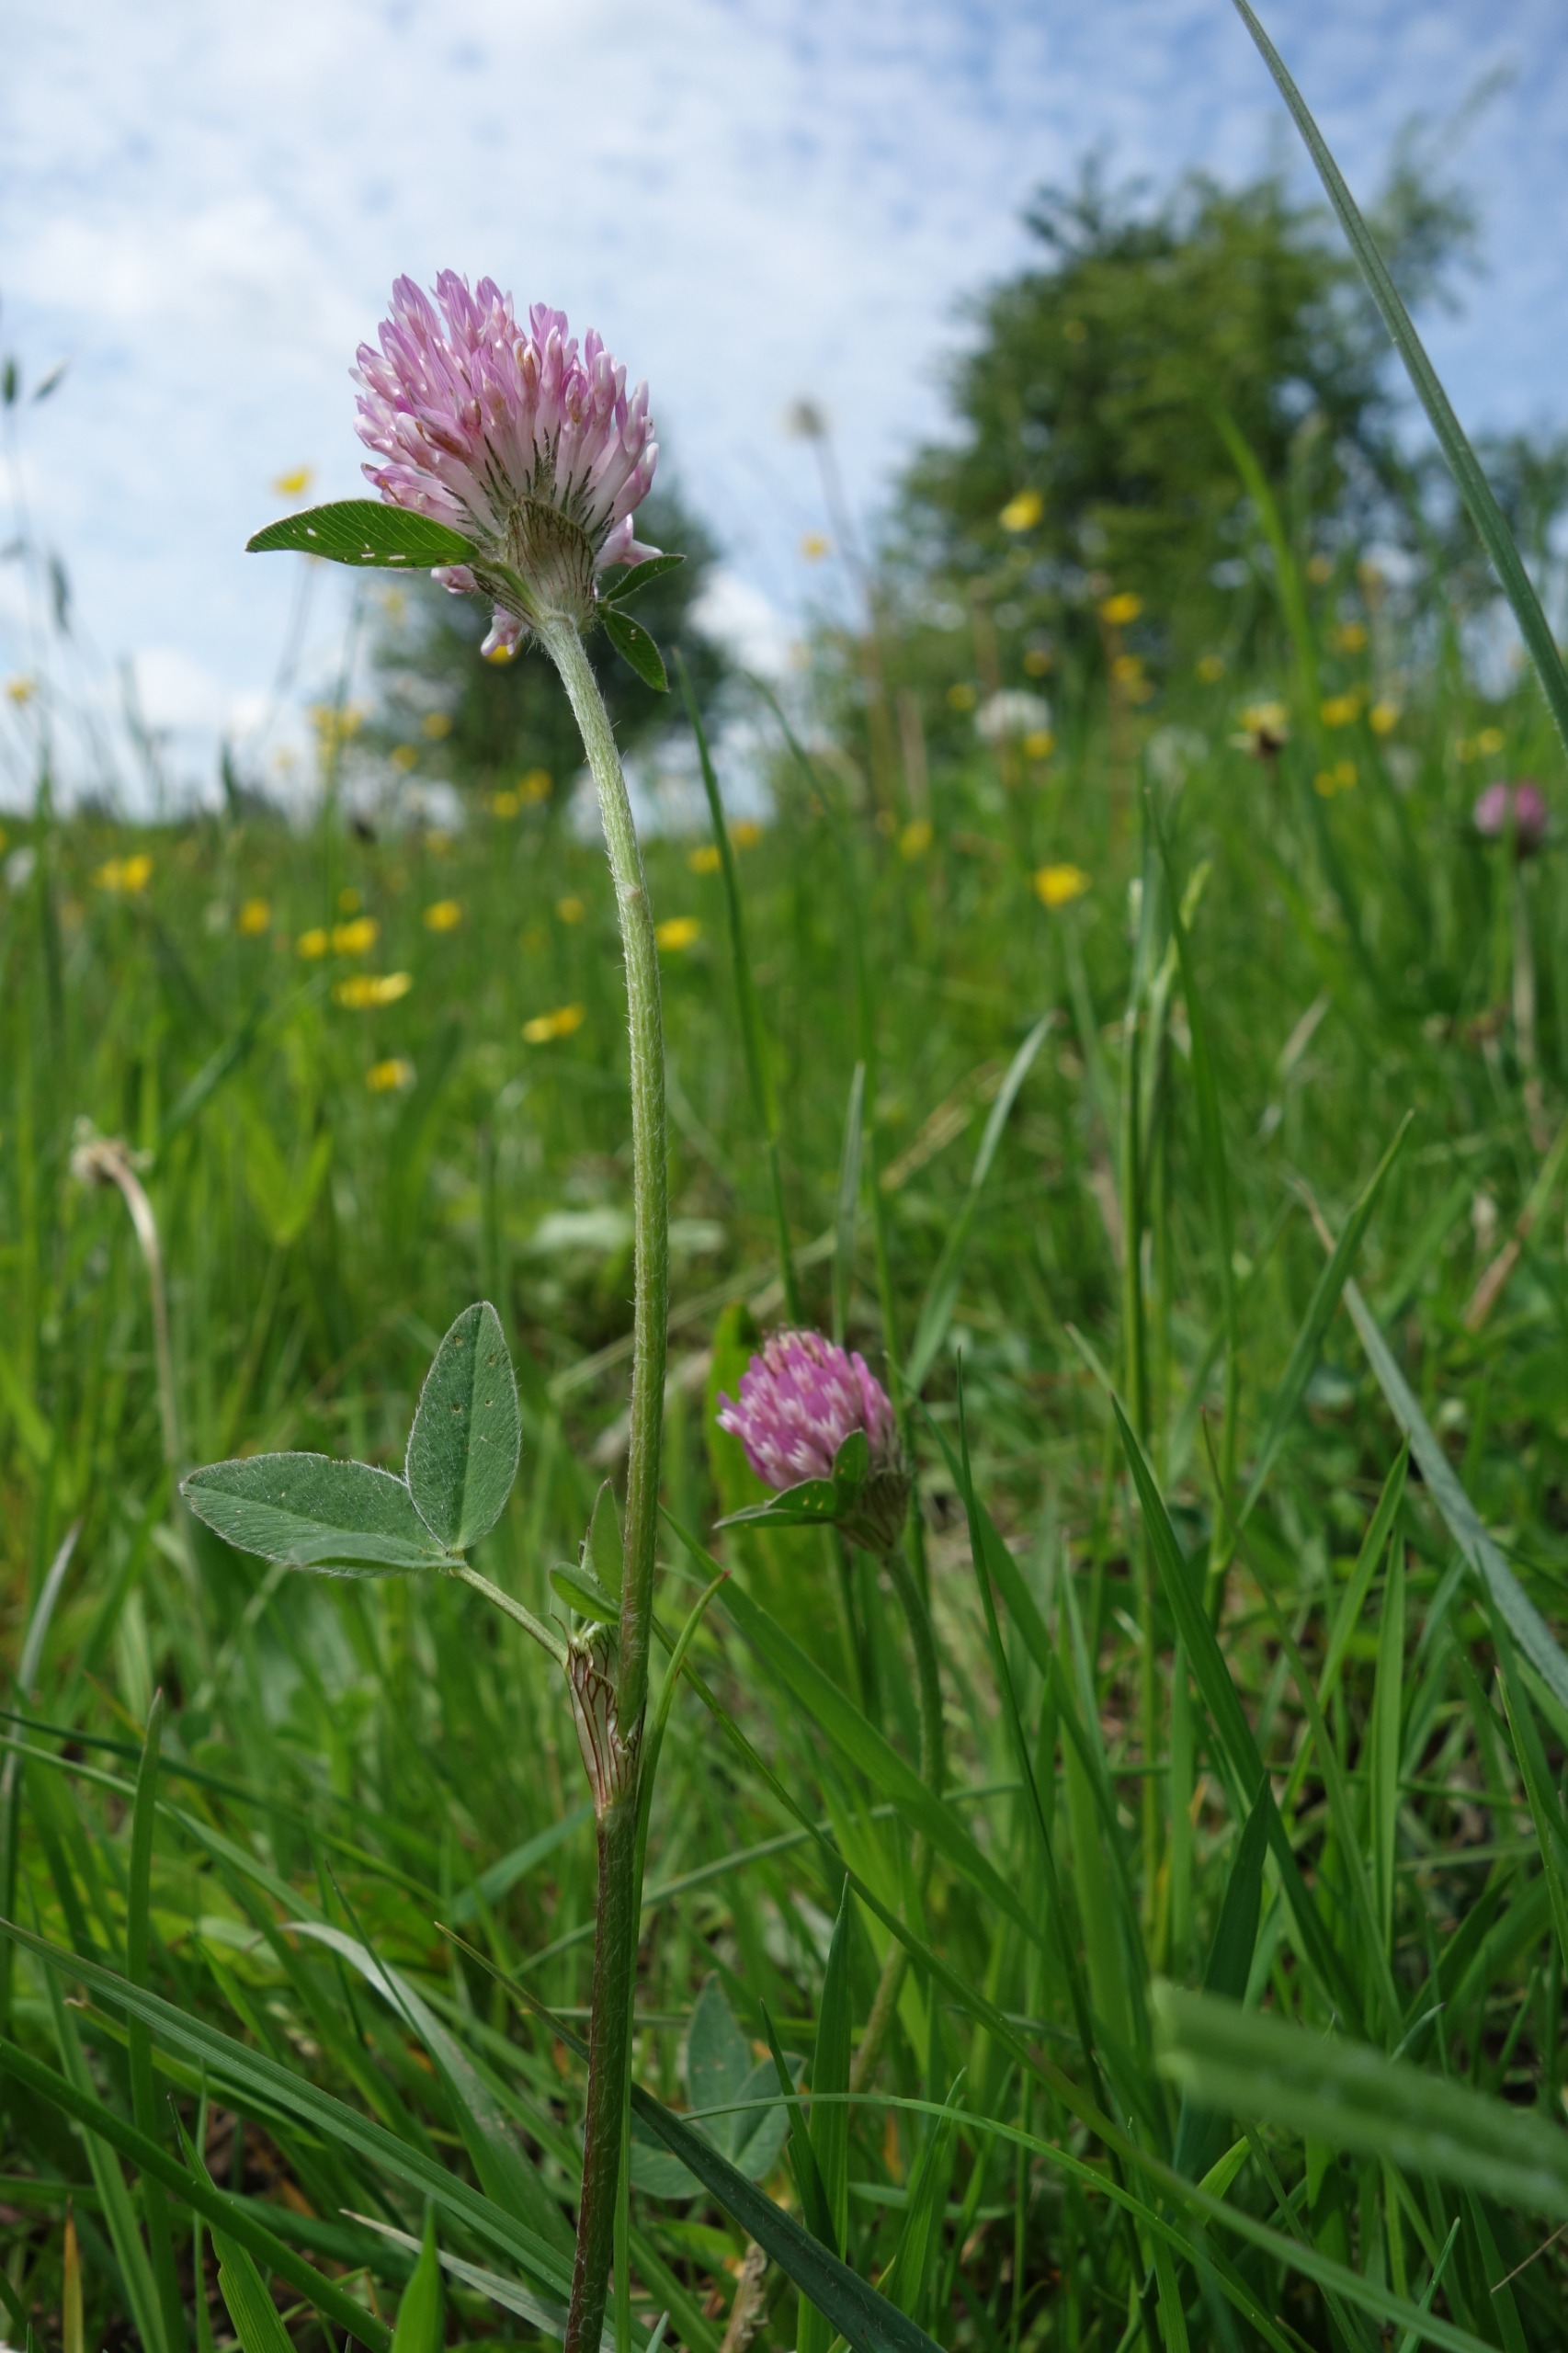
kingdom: Plantae
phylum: Tracheophyta
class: Magnoliopsida
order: Fabales
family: Fabaceae
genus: Trifolium
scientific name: Trifolium pratense
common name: Rød-kløver
